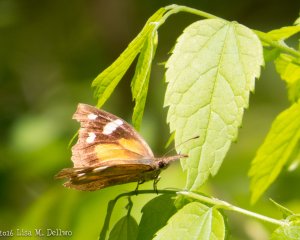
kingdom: Animalia
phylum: Arthropoda
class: Insecta
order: Lepidoptera
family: Nymphalidae
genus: Libytheana
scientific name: Libytheana carinenta
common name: American Snout
